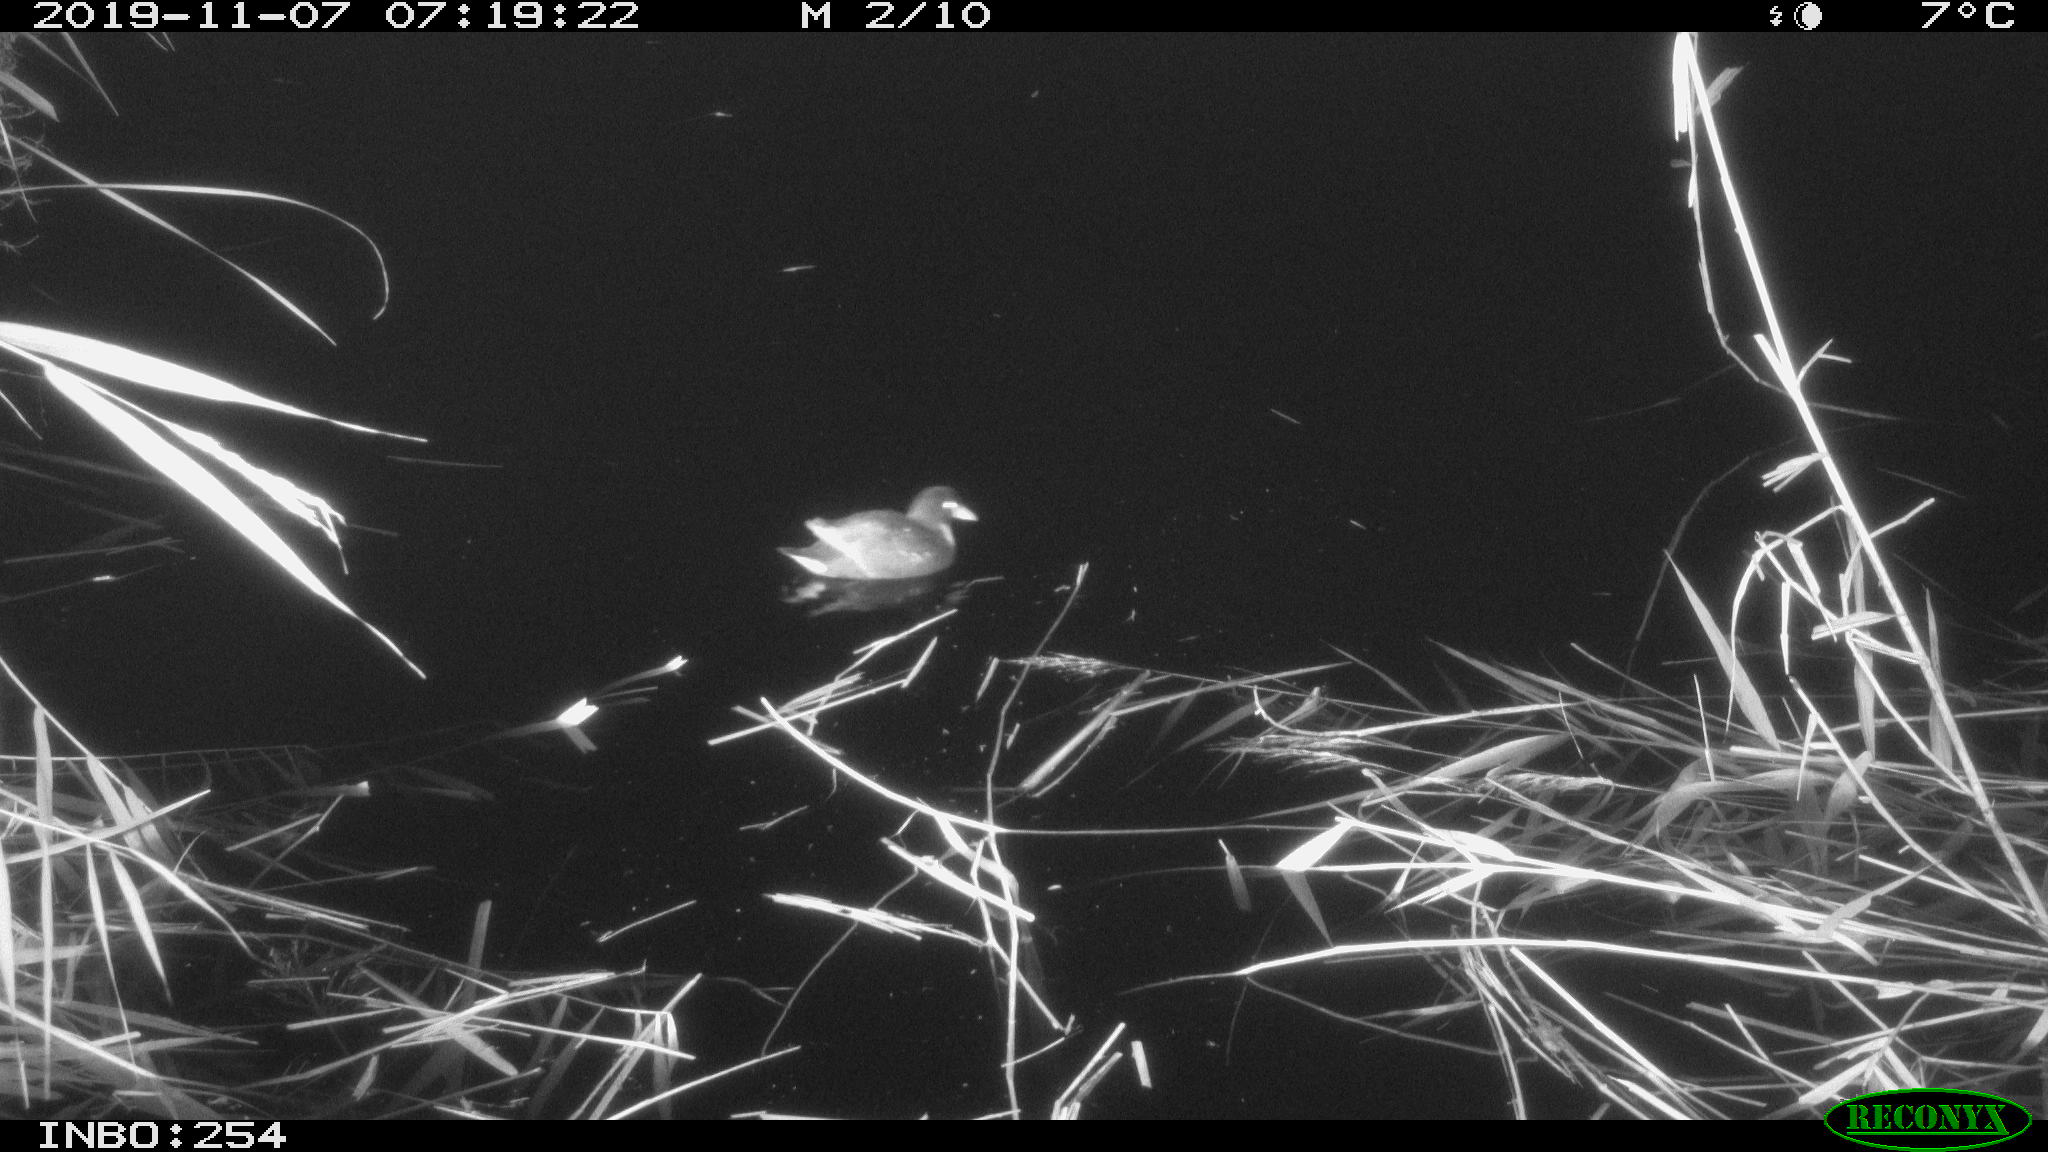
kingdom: Animalia
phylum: Chordata
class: Aves
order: Gruiformes
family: Rallidae
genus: Gallinula
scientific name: Gallinula chloropus
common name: Common moorhen
